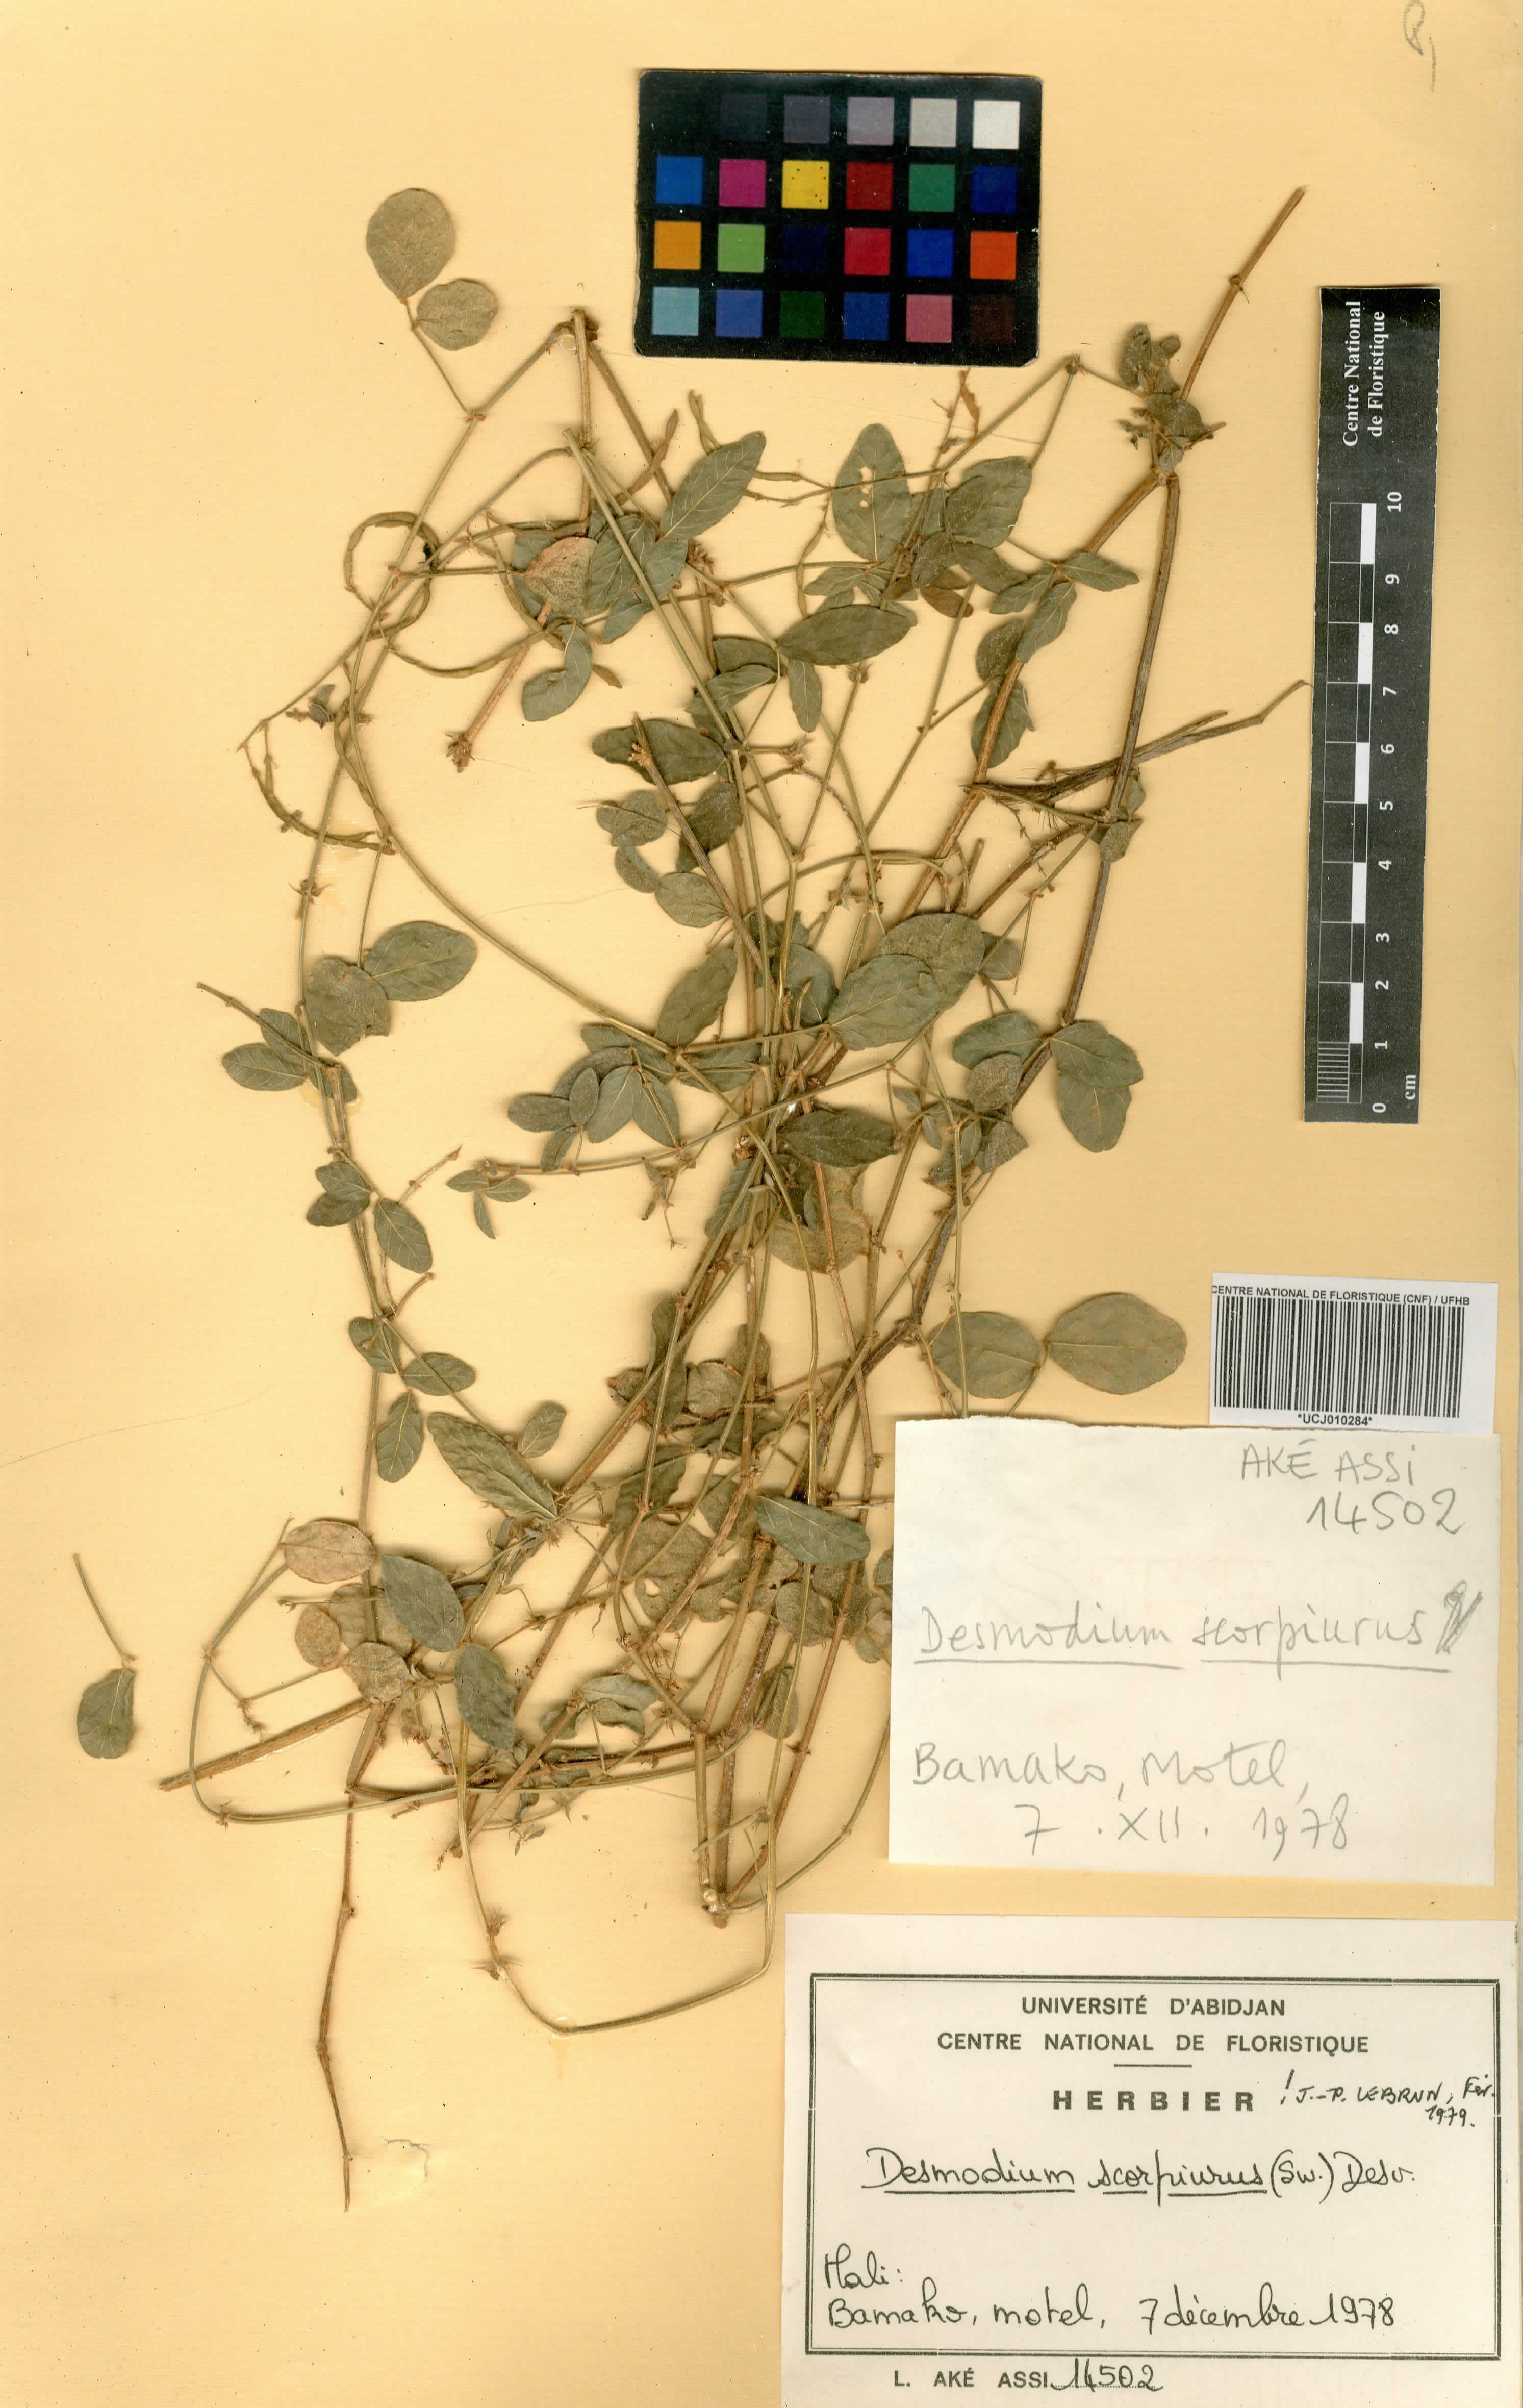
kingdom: Plantae
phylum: Tracheophyta
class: Magnoliopsida
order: Fabales
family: Fabaceae
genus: Desmodium
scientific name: Desmodium scorpiurus
